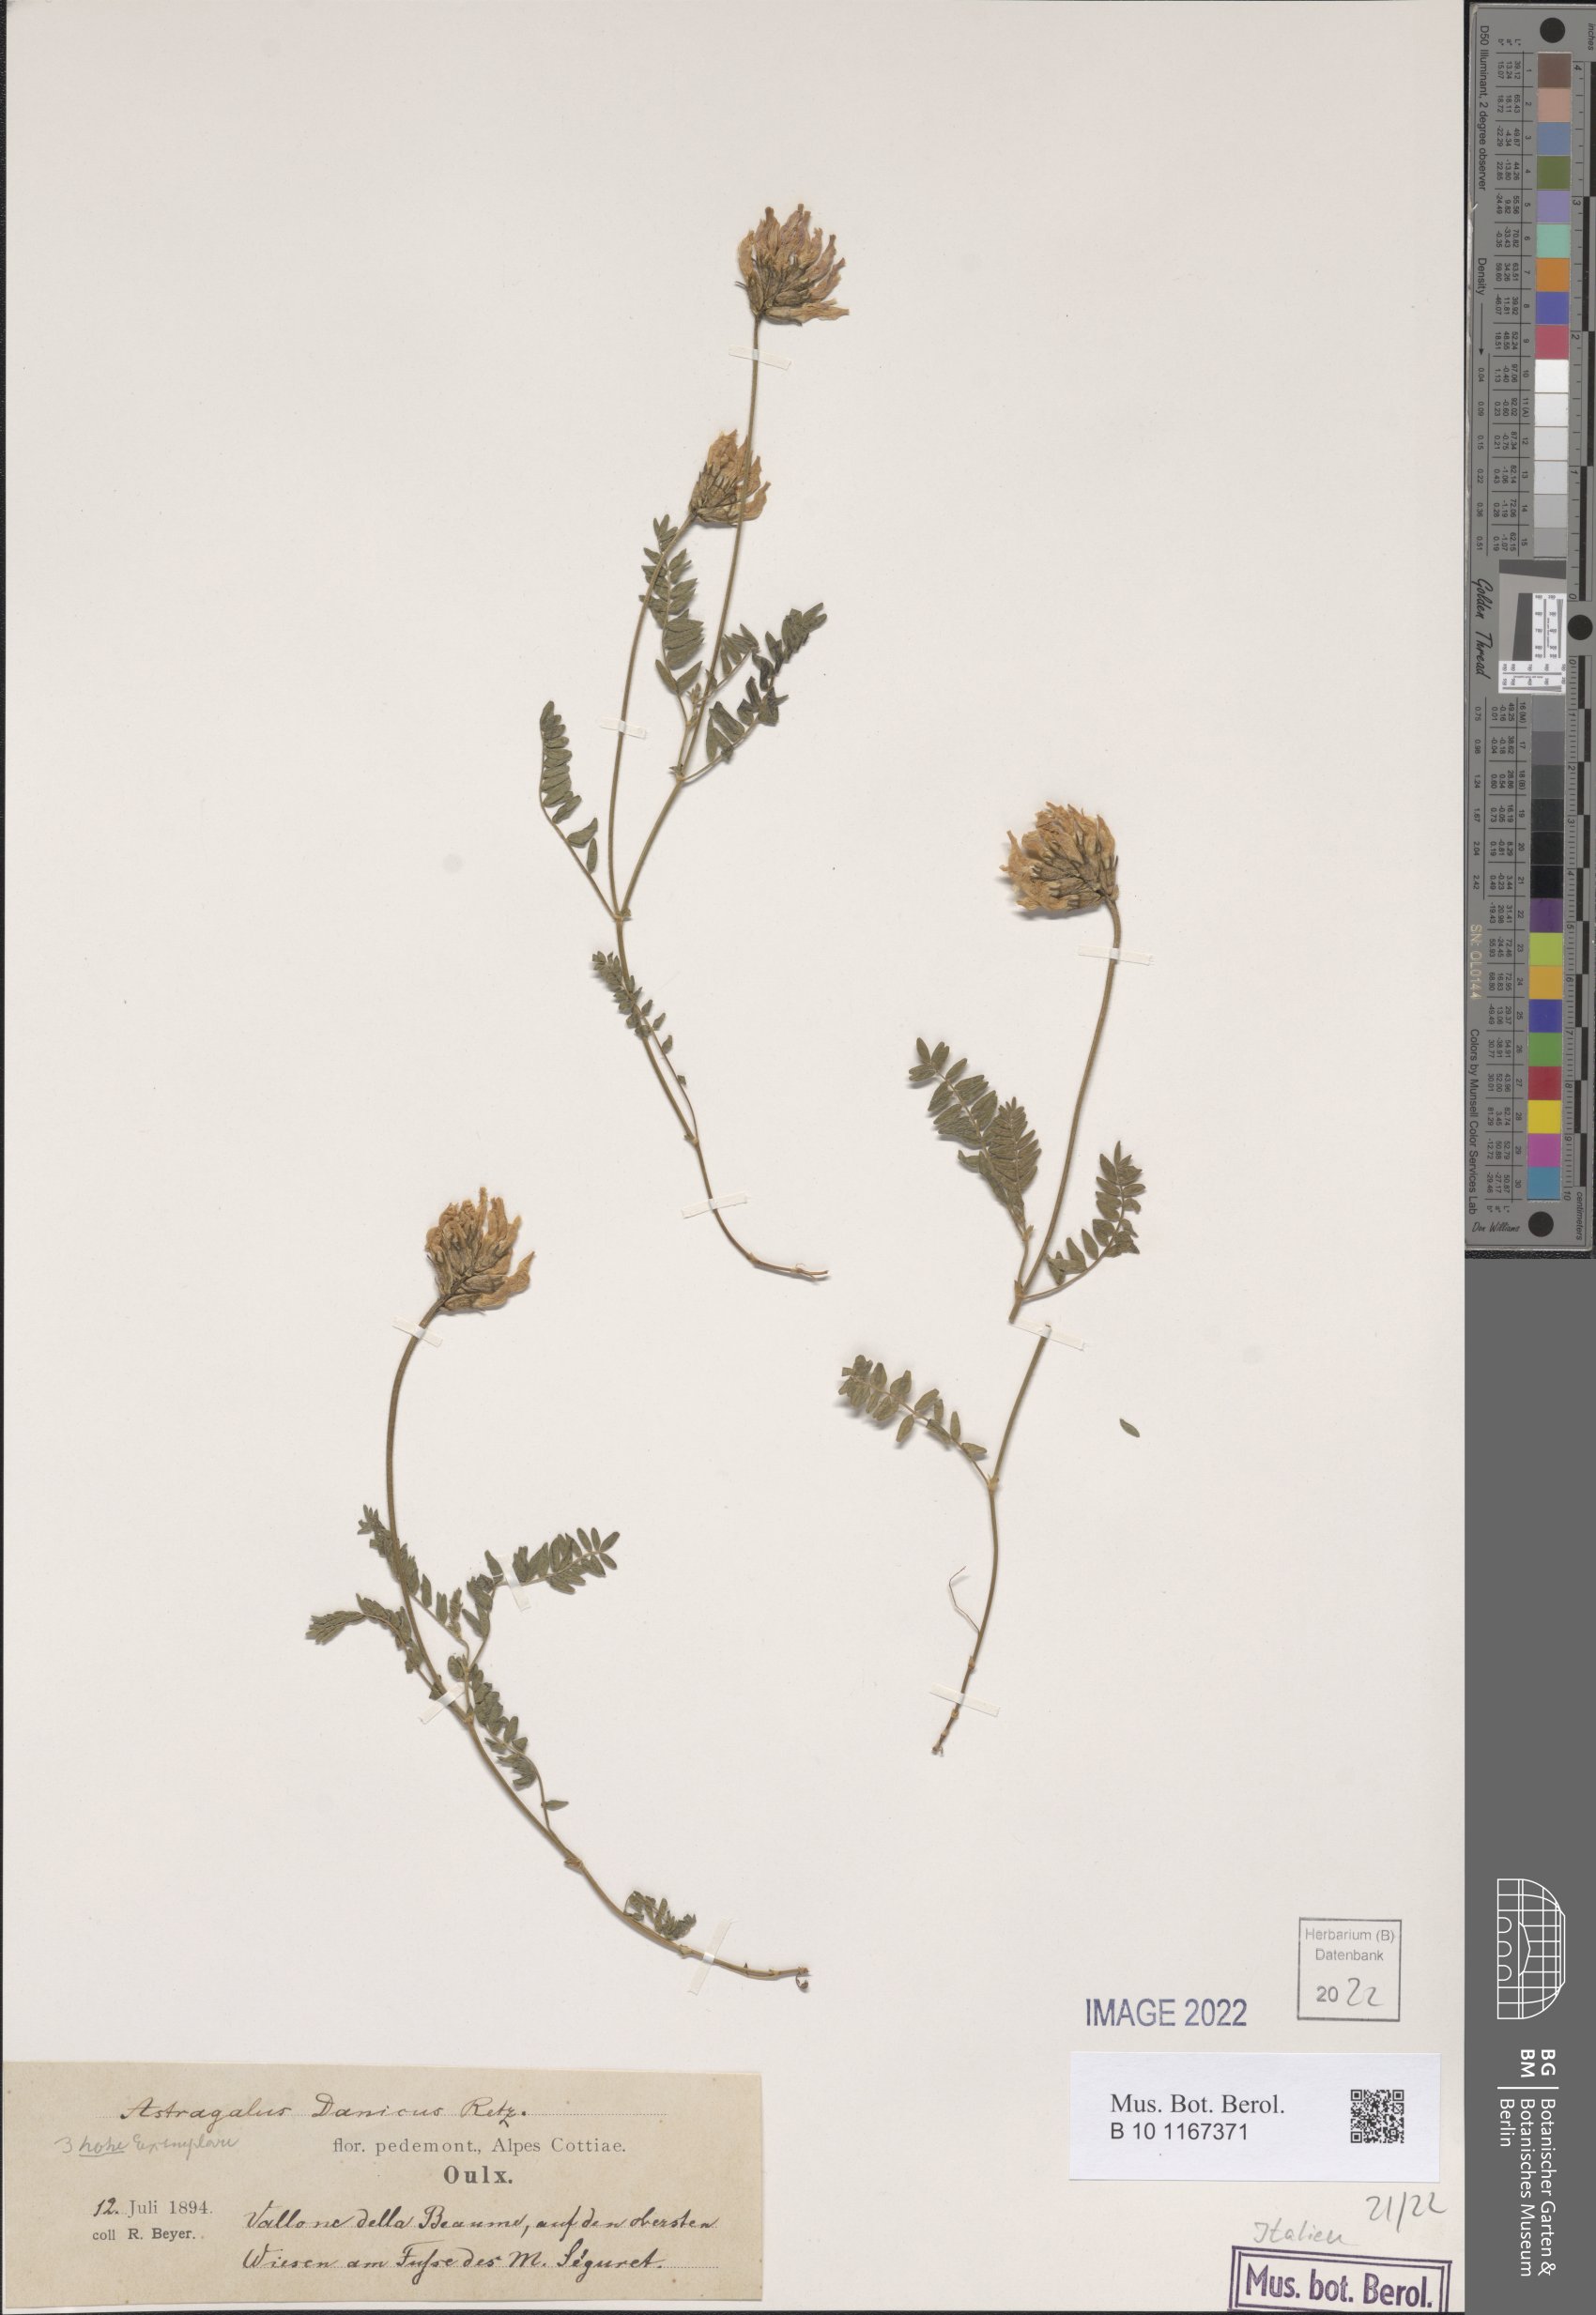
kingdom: Plantae
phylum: Tracheophyta
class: Magnoliopsida
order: Fabales
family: Fabaceae
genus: Astragalus
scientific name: Astragalus danicus
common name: Purple milk-vetch
